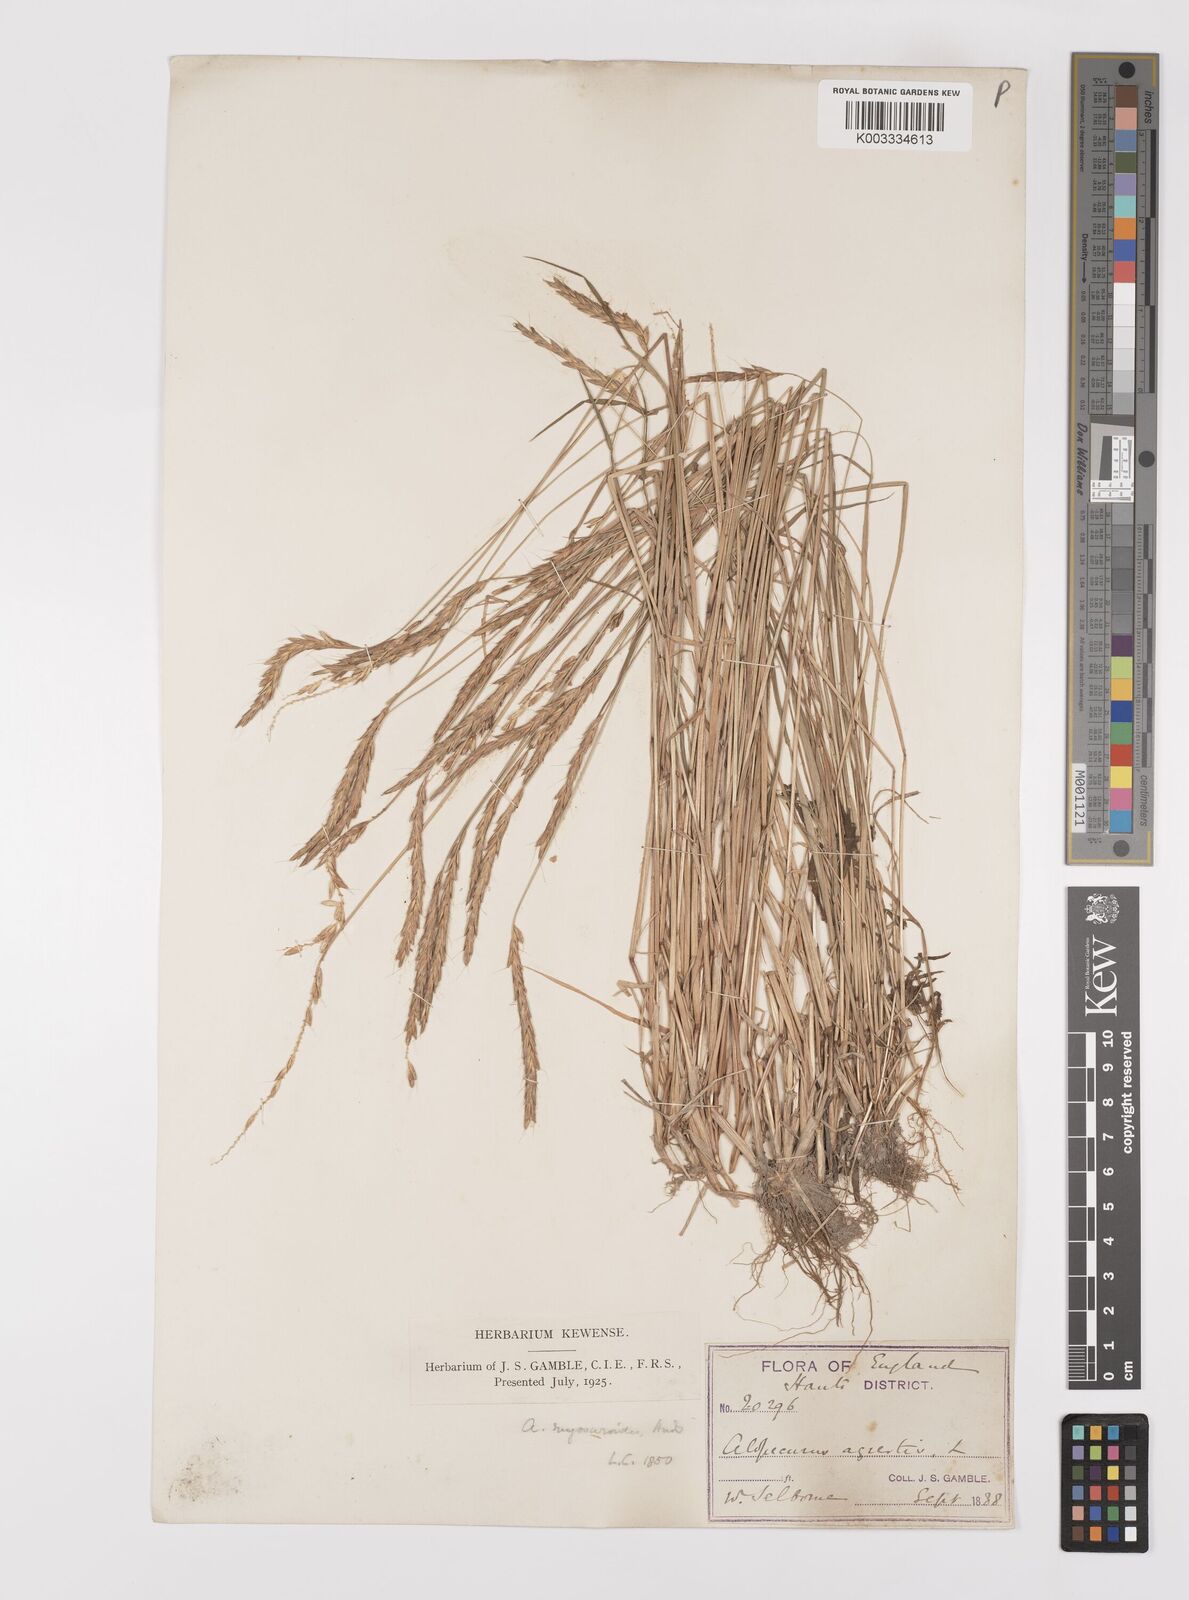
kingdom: Plantae
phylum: Tracheophyta
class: Liliopsida
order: Poales
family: Poaceae
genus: Alopecurus
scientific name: Alopecurus myosuroides
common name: Black-grass
